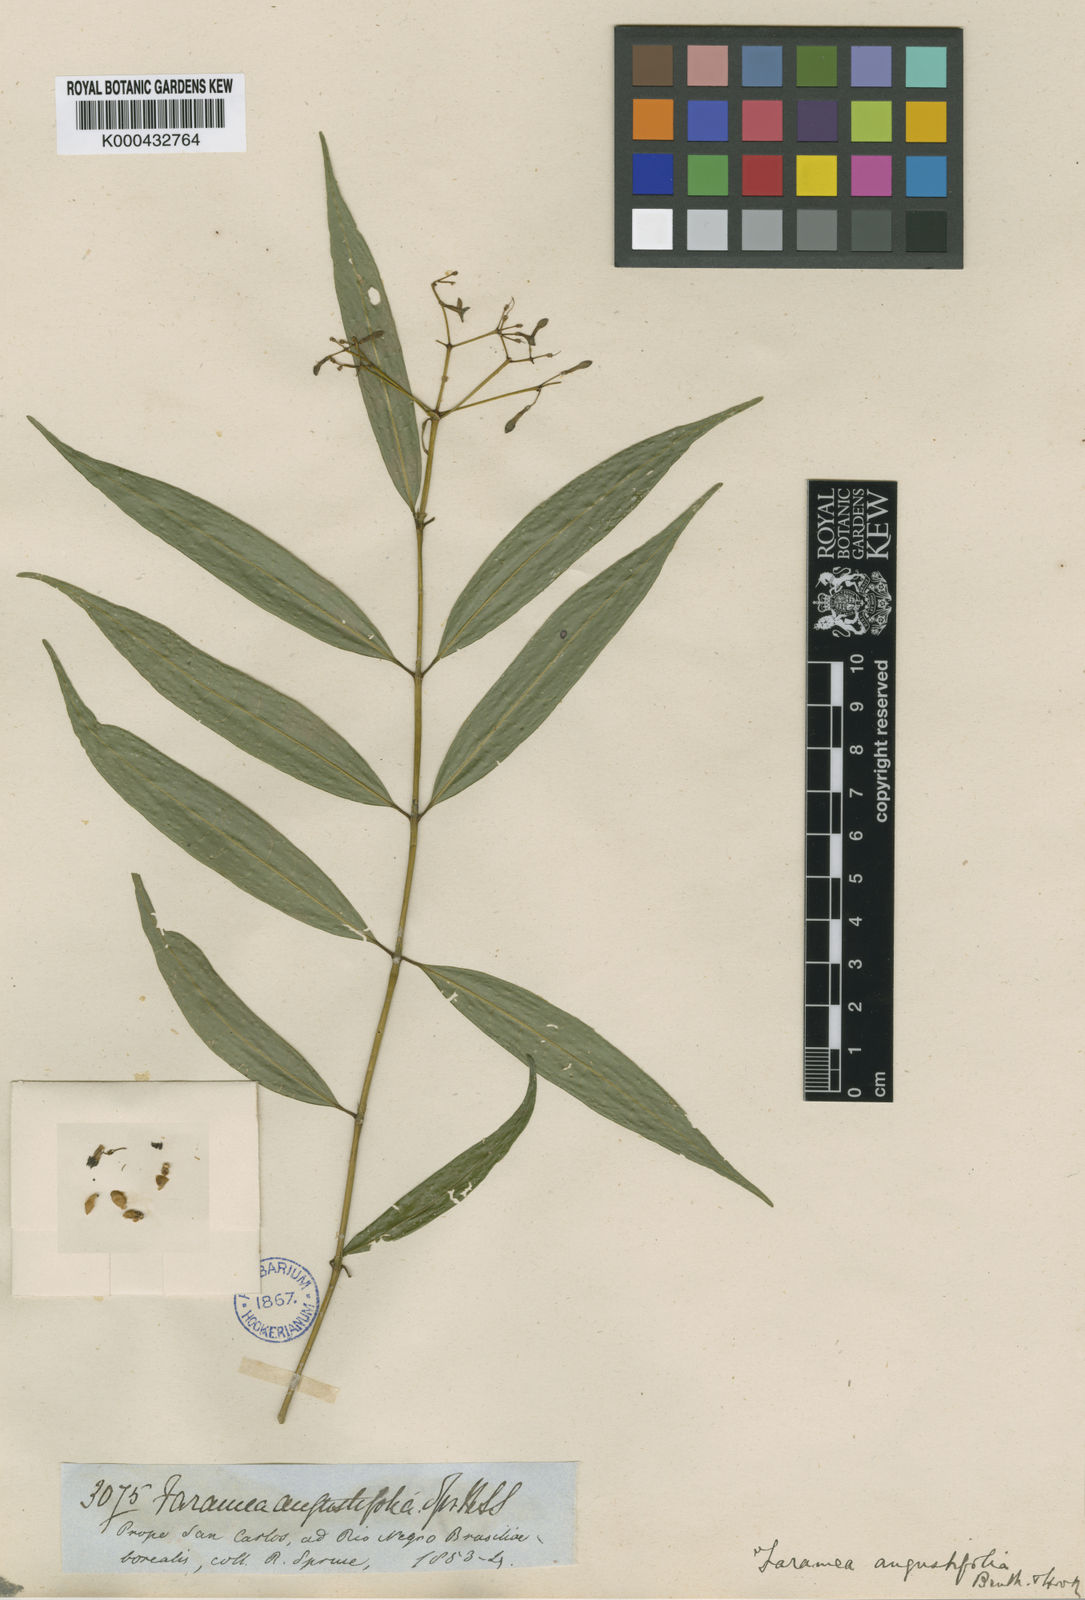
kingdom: Plantae
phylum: Tracheophyta
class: Magnoliopsida
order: Gentianales
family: Rubiaceae
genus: Faramea
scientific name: Faramea
